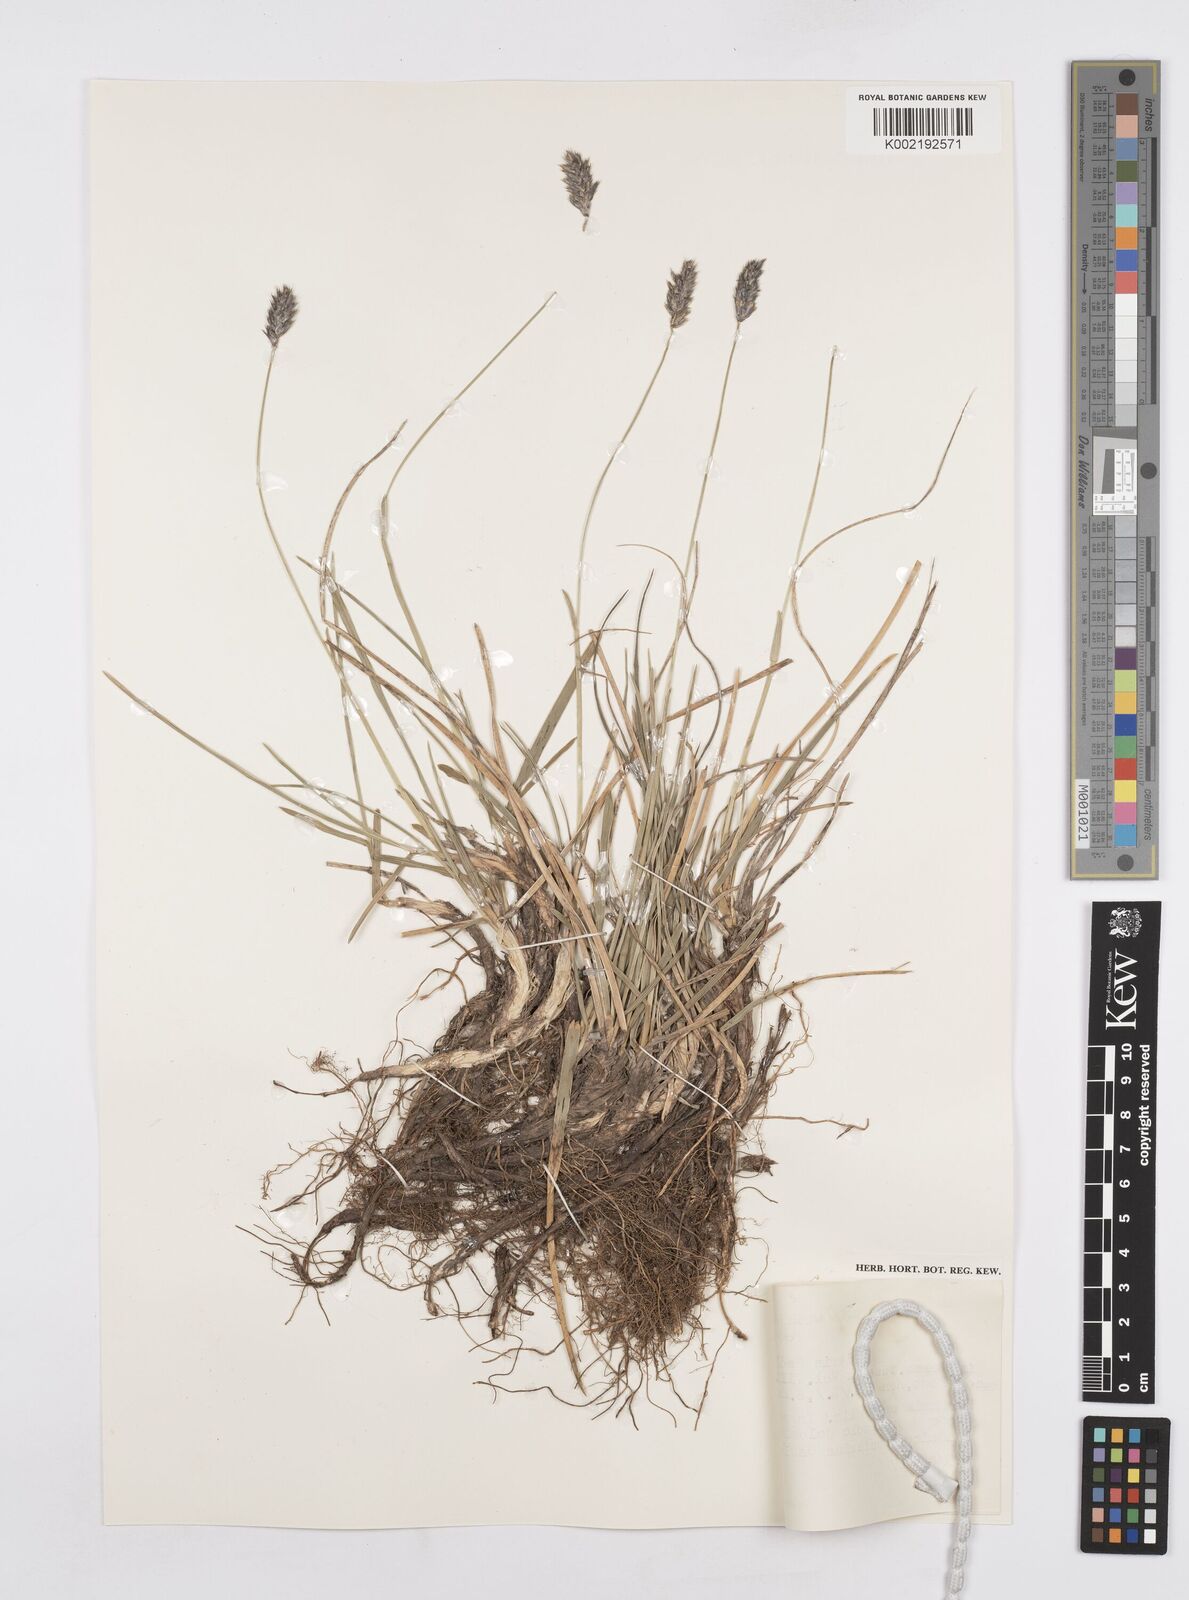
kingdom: Plantae
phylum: Tracheophyta
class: Liliopsida
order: Poales
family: Poaceae
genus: Sesleria
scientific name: Sesleria sadleriana
